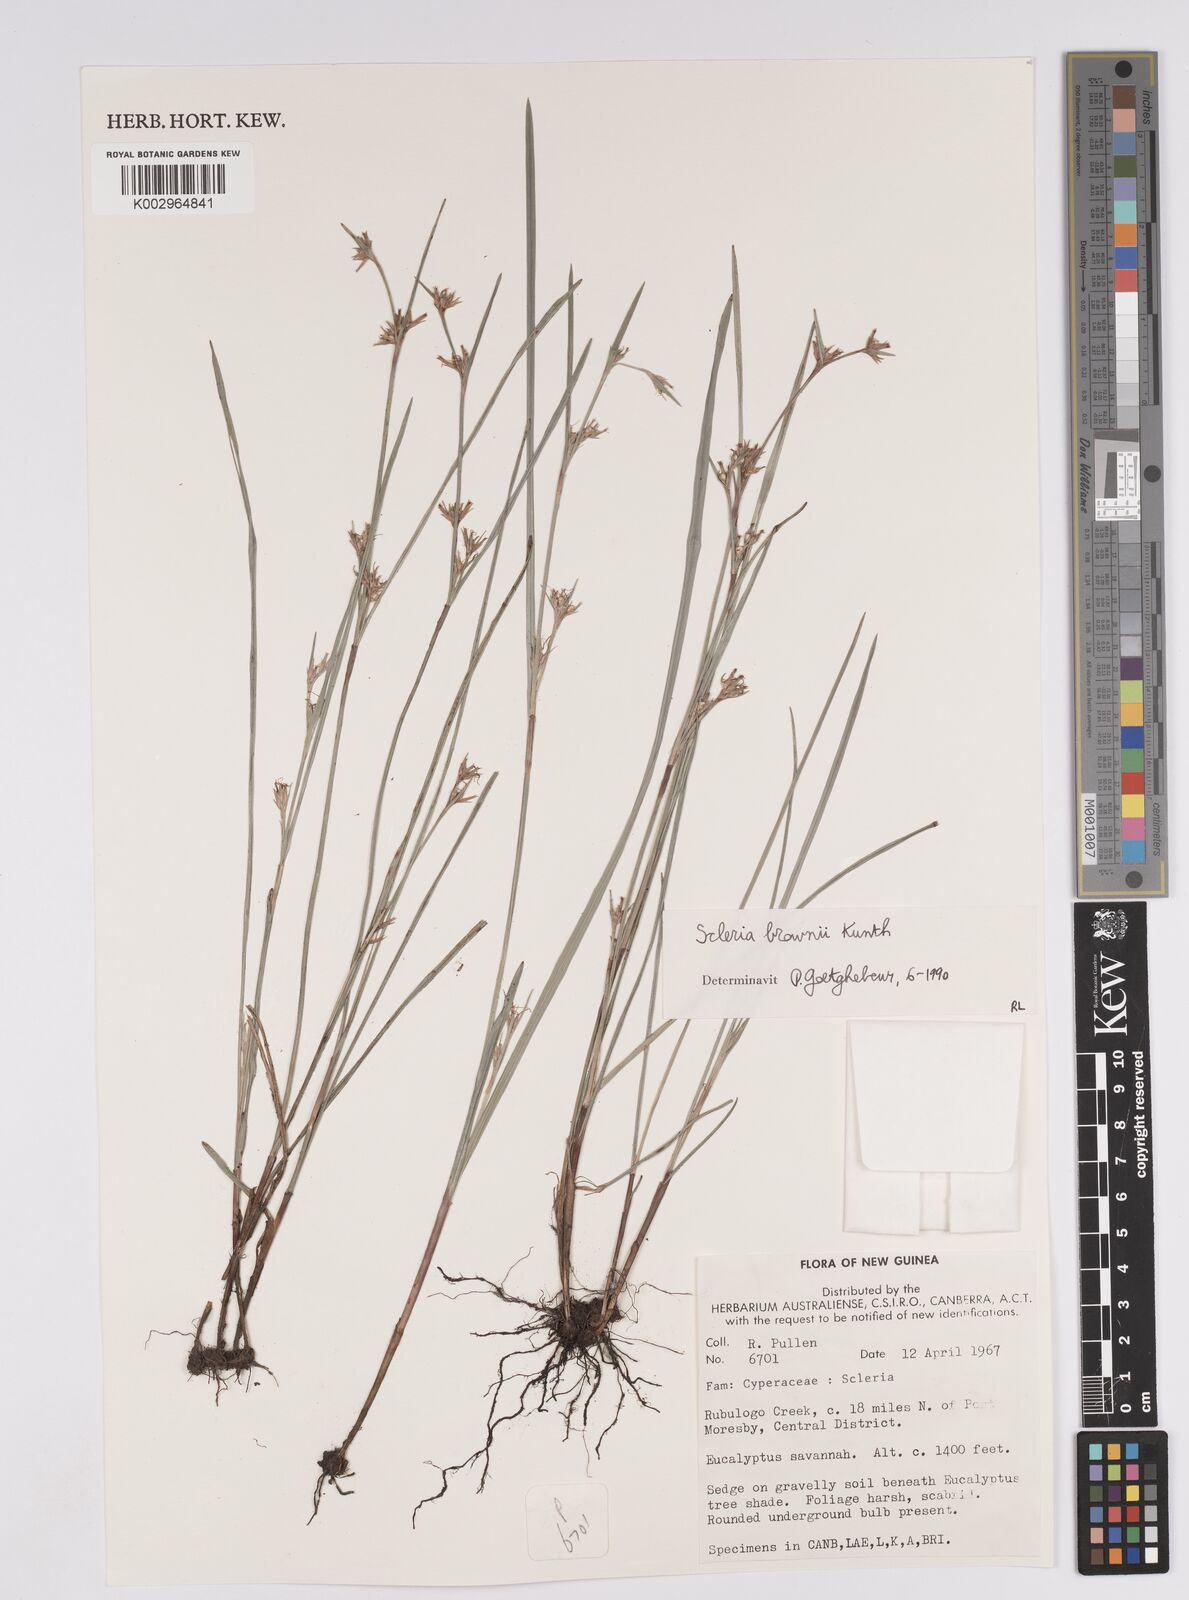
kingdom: Plantae
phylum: Tracheophyta
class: Liliopsida
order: Poales
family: Cyperaceae
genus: Scleria
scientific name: Scleria brownii
